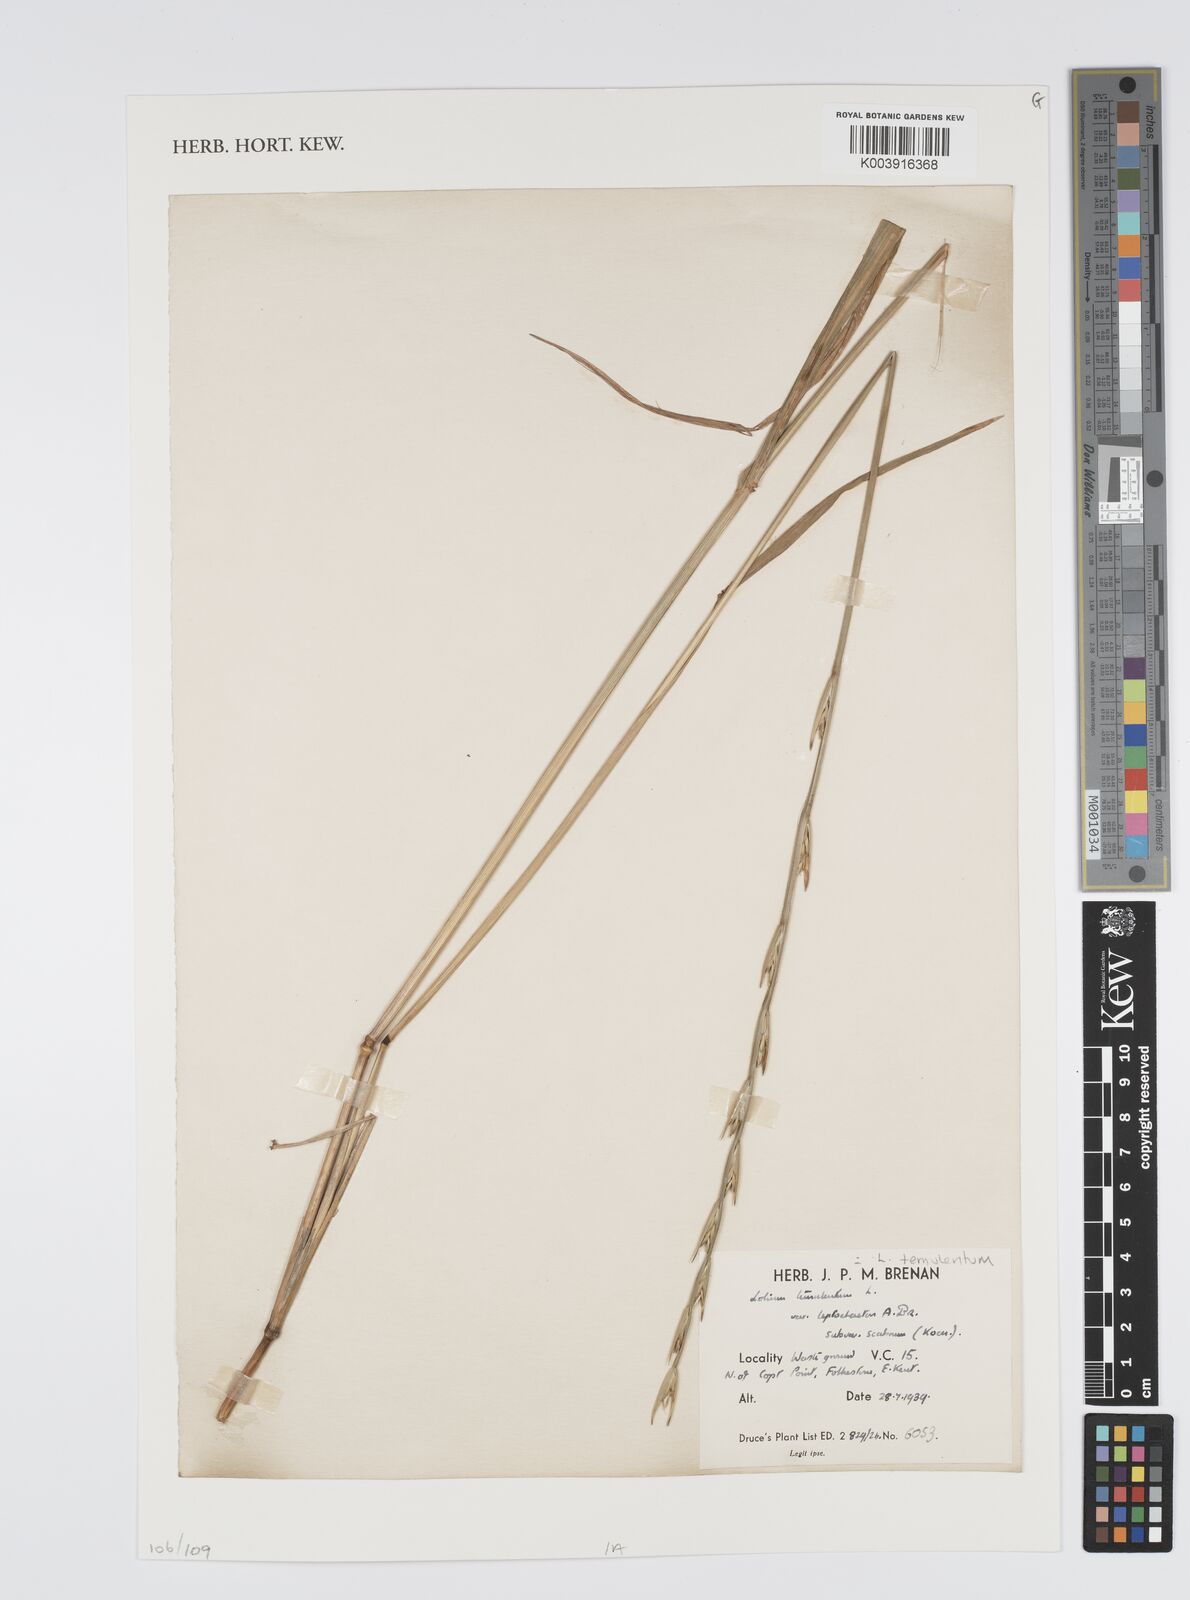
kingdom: Plantae
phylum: Tracheophyta
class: Liliopsida
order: Poales
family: Poaceae
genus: Lolium
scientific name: Lolium temulentum
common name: Darnel
